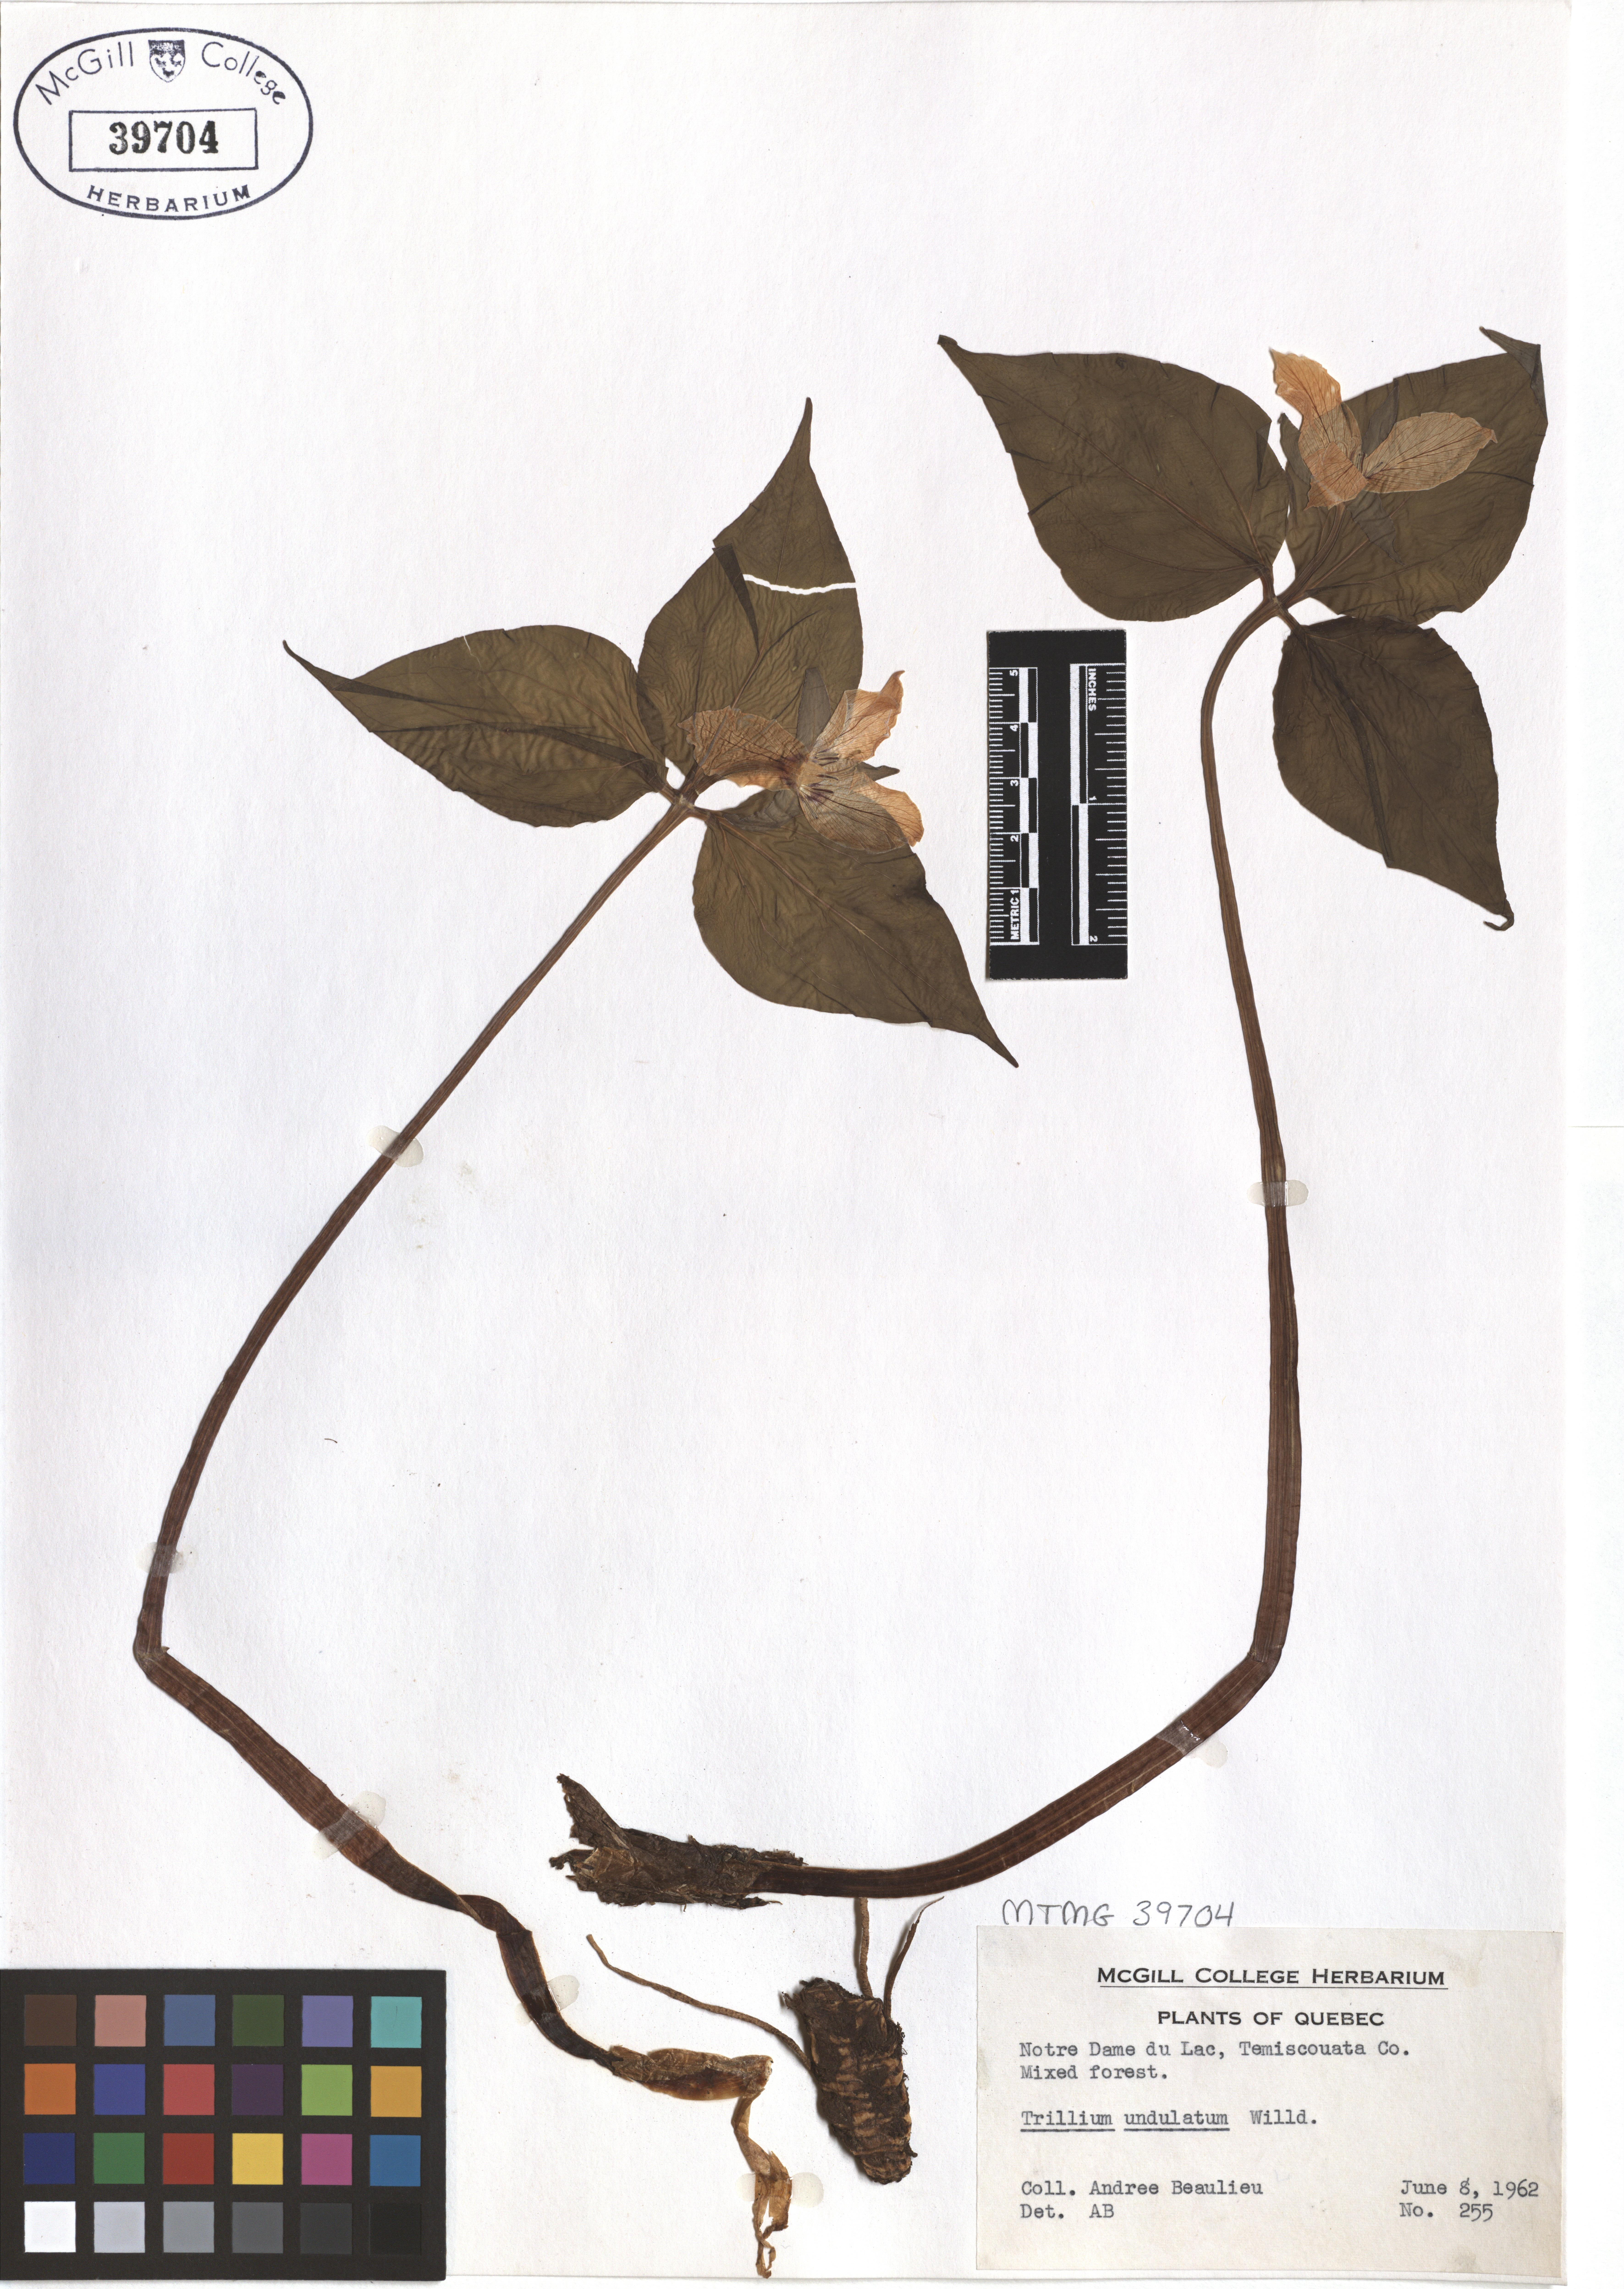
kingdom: Plantae
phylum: Tracheophyta
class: Liliopsida
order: Liliales
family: Melanthiaceae
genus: Trillium
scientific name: Trillium undulatum
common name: Paint trillium
